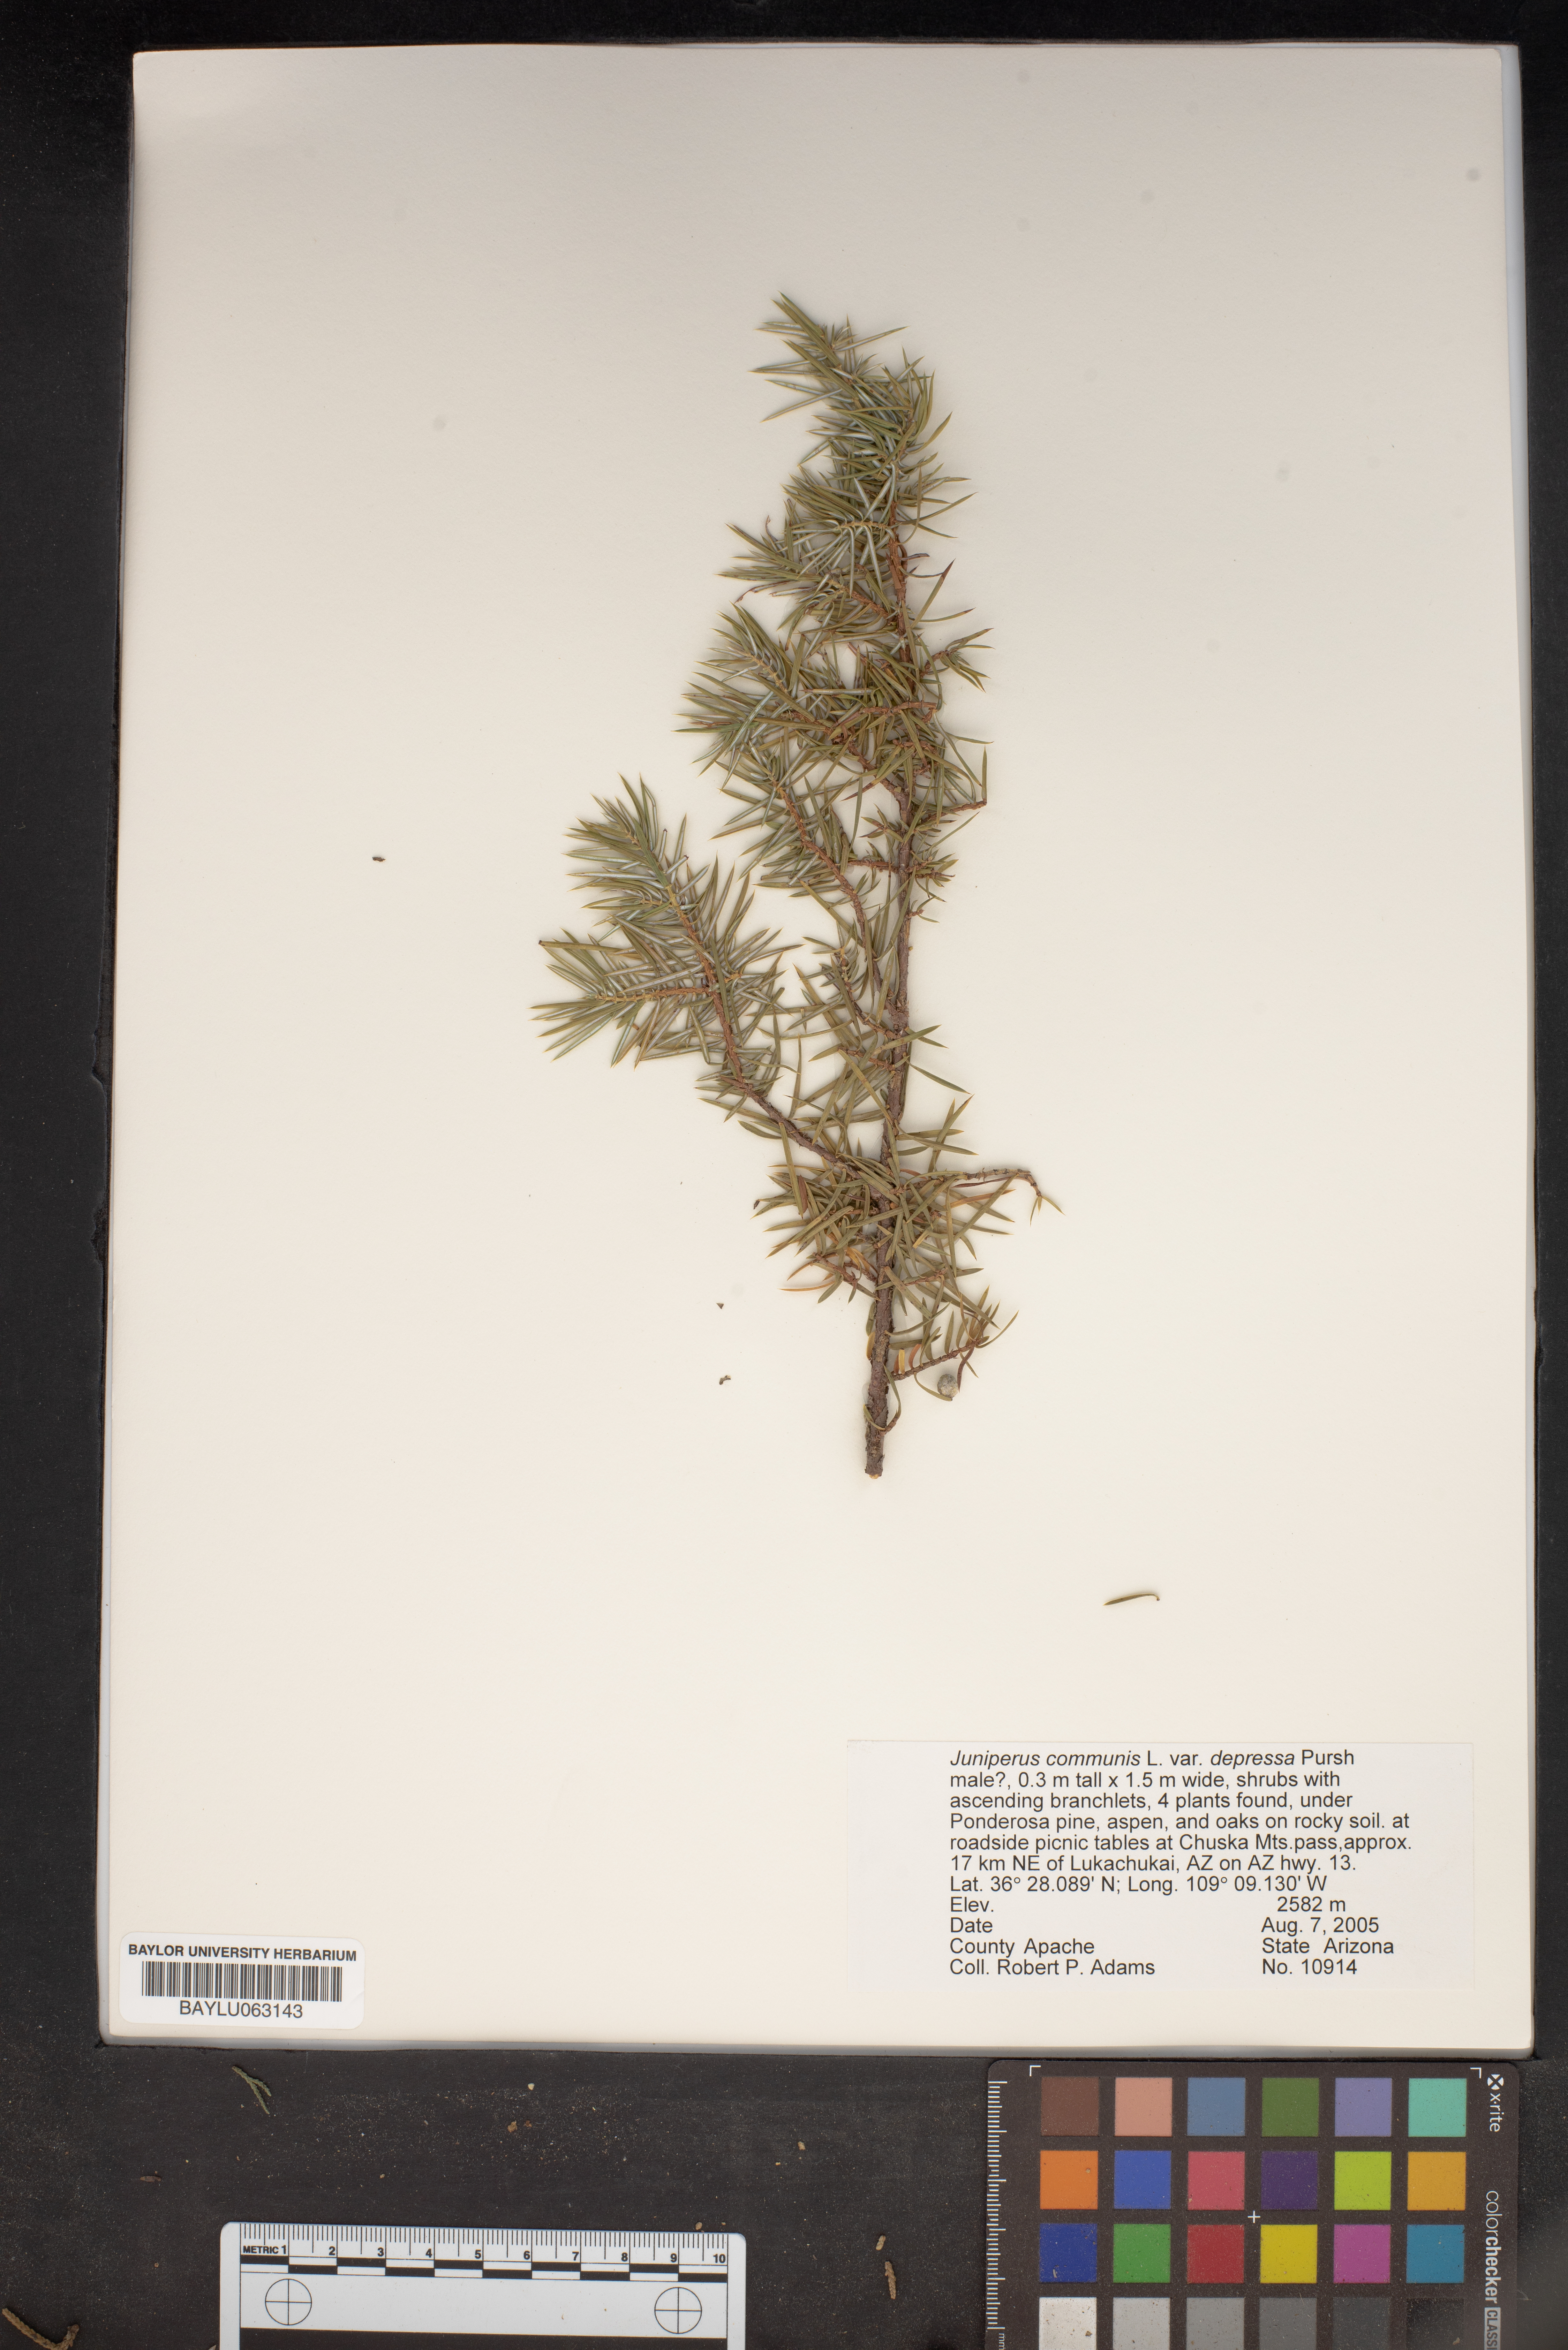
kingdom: Plantae
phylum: Tracheophyta
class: Pinopsida
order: Pinales
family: Cupressaceae
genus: Juniperus
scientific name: Juniperus communis
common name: Common juniper
